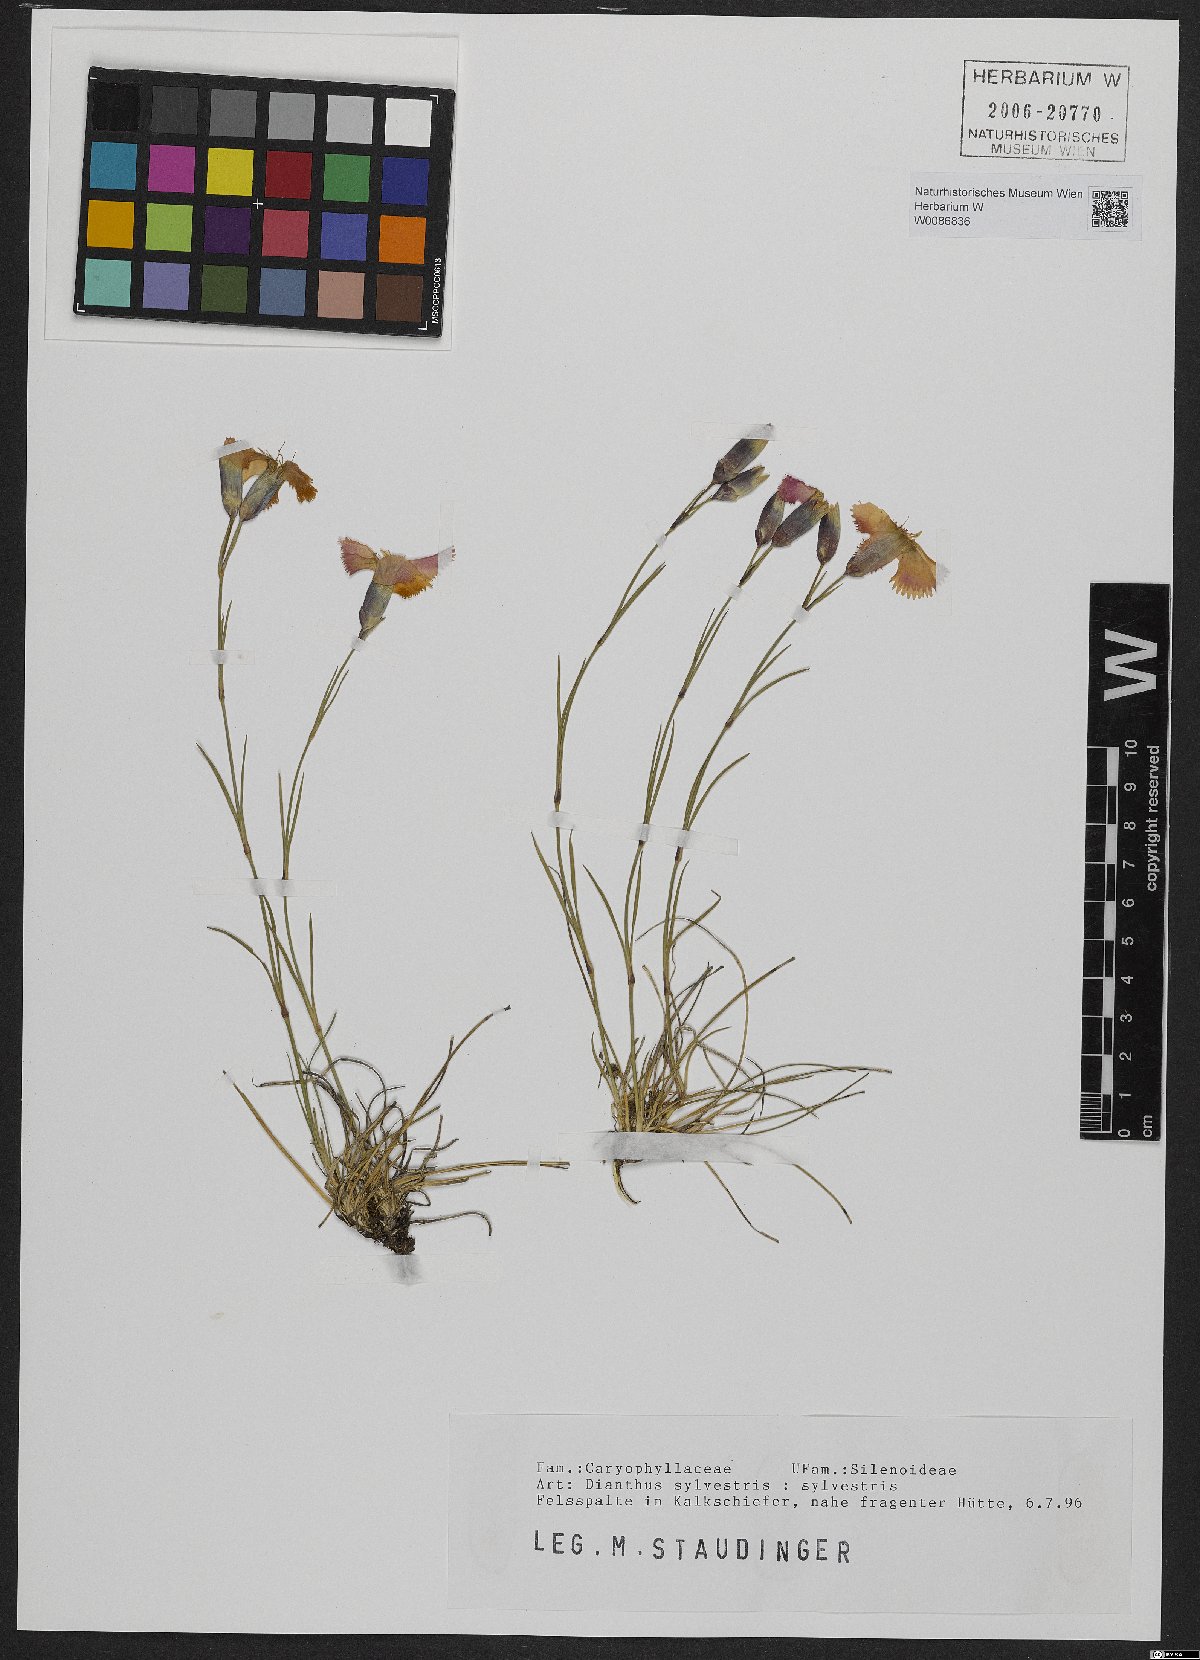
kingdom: Plantae
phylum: Tracheophyta
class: Magnoliopsida
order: Caryophyllales
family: Caryophyllaceae
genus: Dianthus
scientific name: Dianthus sylvestris
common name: Wood pink
